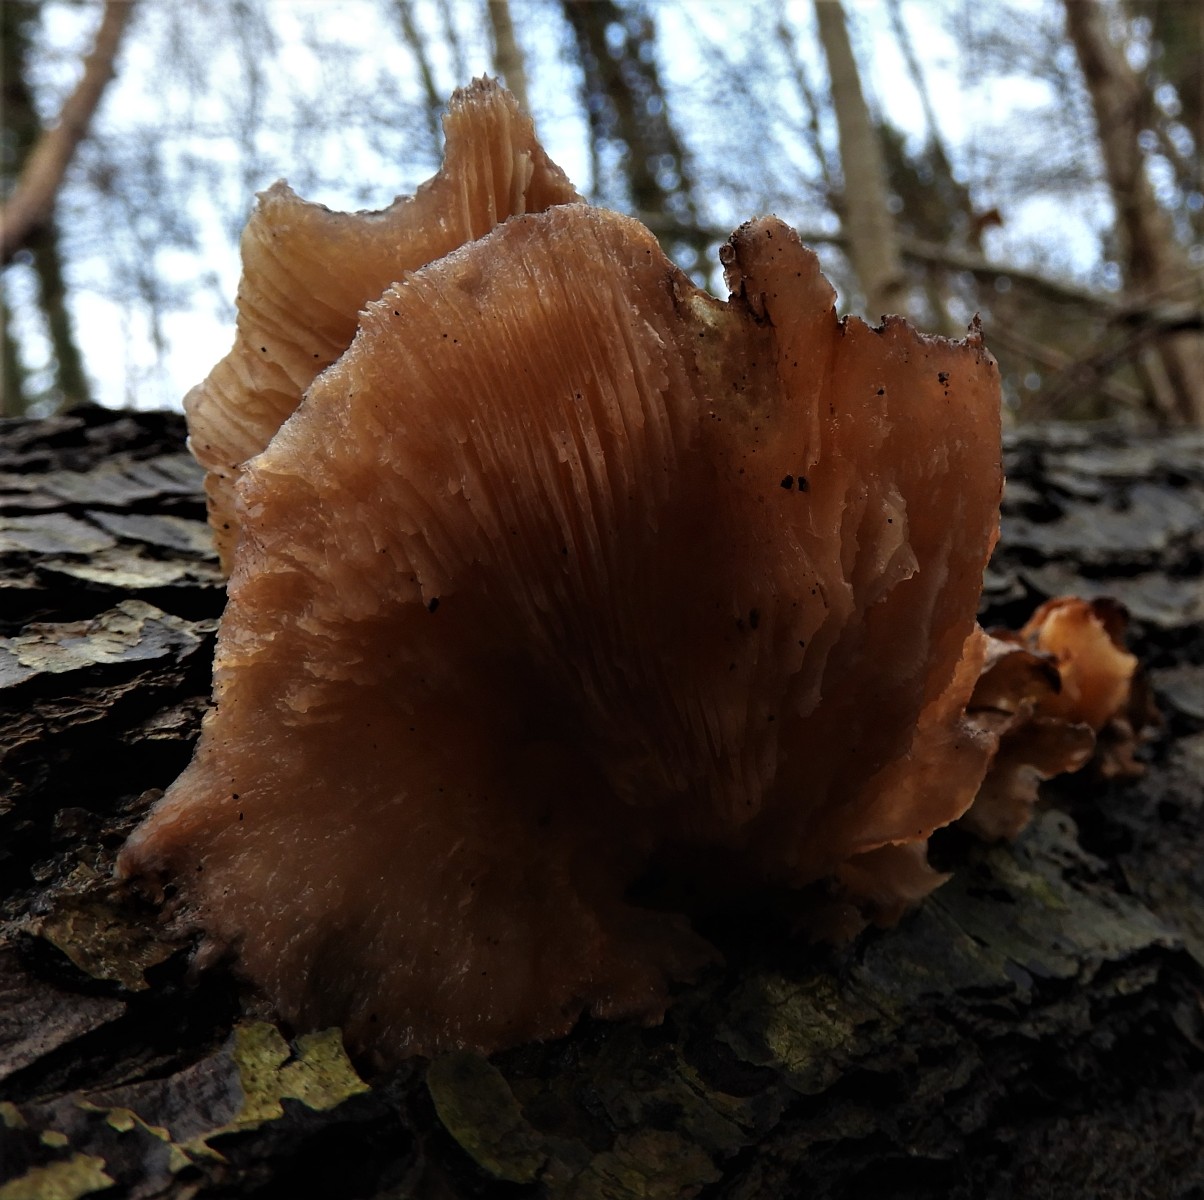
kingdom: Fungi
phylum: Basidiomycota
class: Agaricomycetes
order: Agaricales
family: Sarcomyxaceae
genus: Sarcomyxa
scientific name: Sarcomyxa serotina
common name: gummihat
